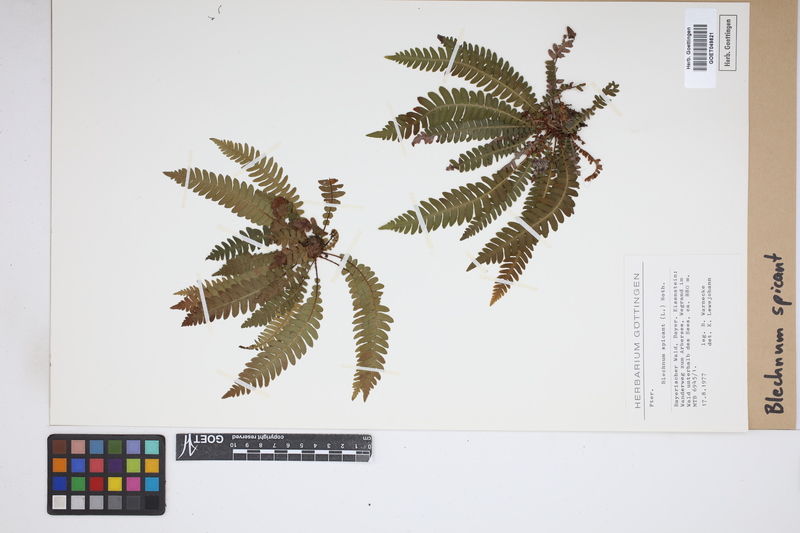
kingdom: Plantae
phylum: Tracheophyta
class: Polypodiopsida
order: Polypodiales
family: Blechnaceae
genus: Struthiopteris
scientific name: Struthiopteris spicant
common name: Deer fern
